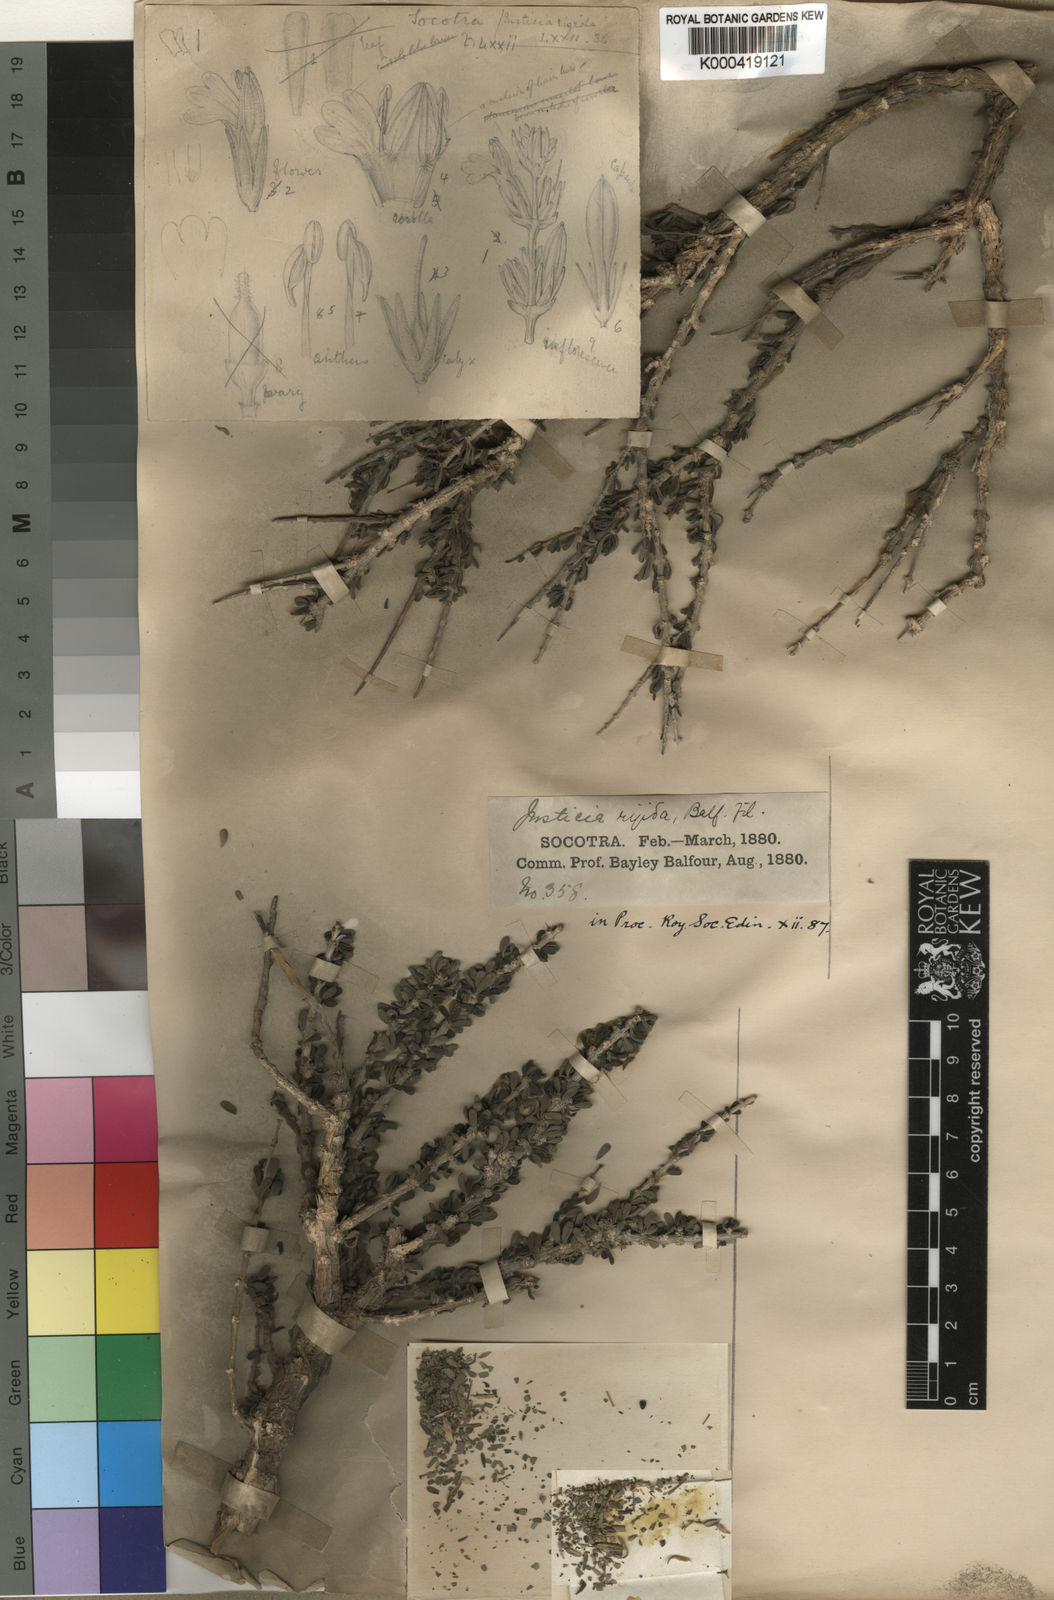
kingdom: Plantae
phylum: Tracheophyta
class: Magnoliopsida
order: Lamiales
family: Acanthaceae
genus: Justicia
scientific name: Justicia rigida
